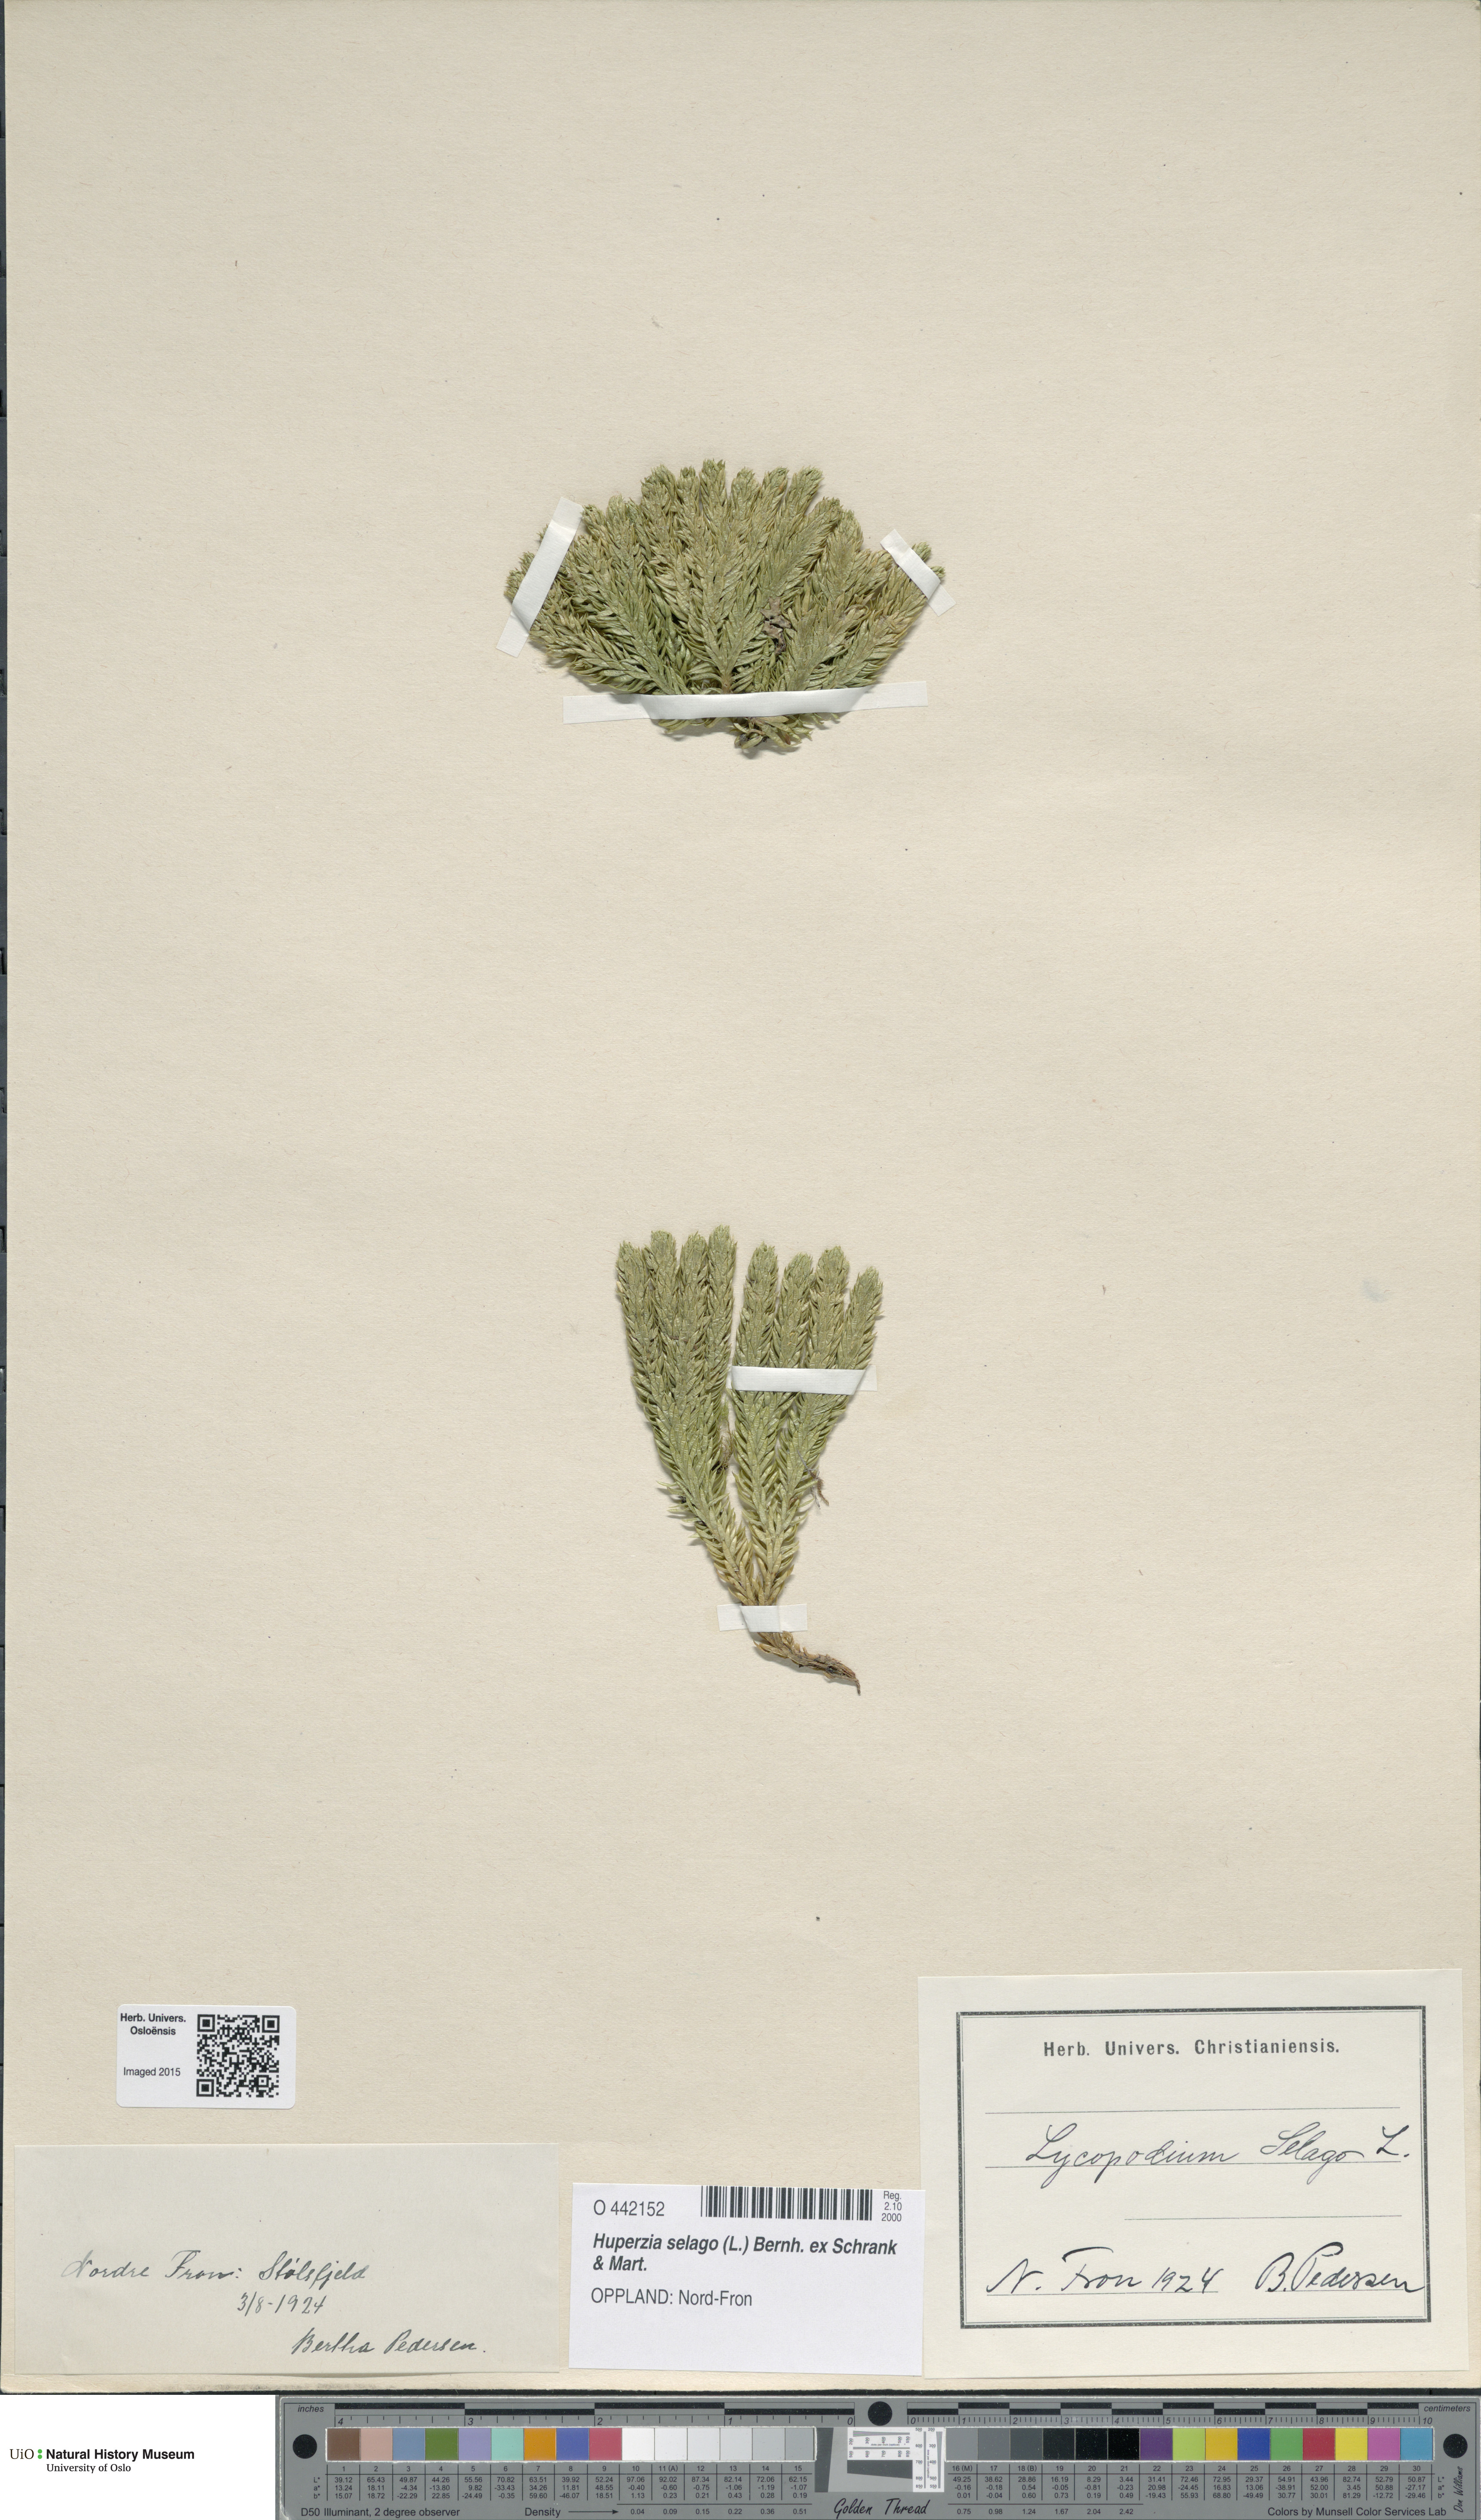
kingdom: Plantae
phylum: Tracheophyta
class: Lycopodiopsida
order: Lycopodiales
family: Lycopodiaceae
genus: Huperzia
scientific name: Huperzia selago
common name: Northern firmoss
